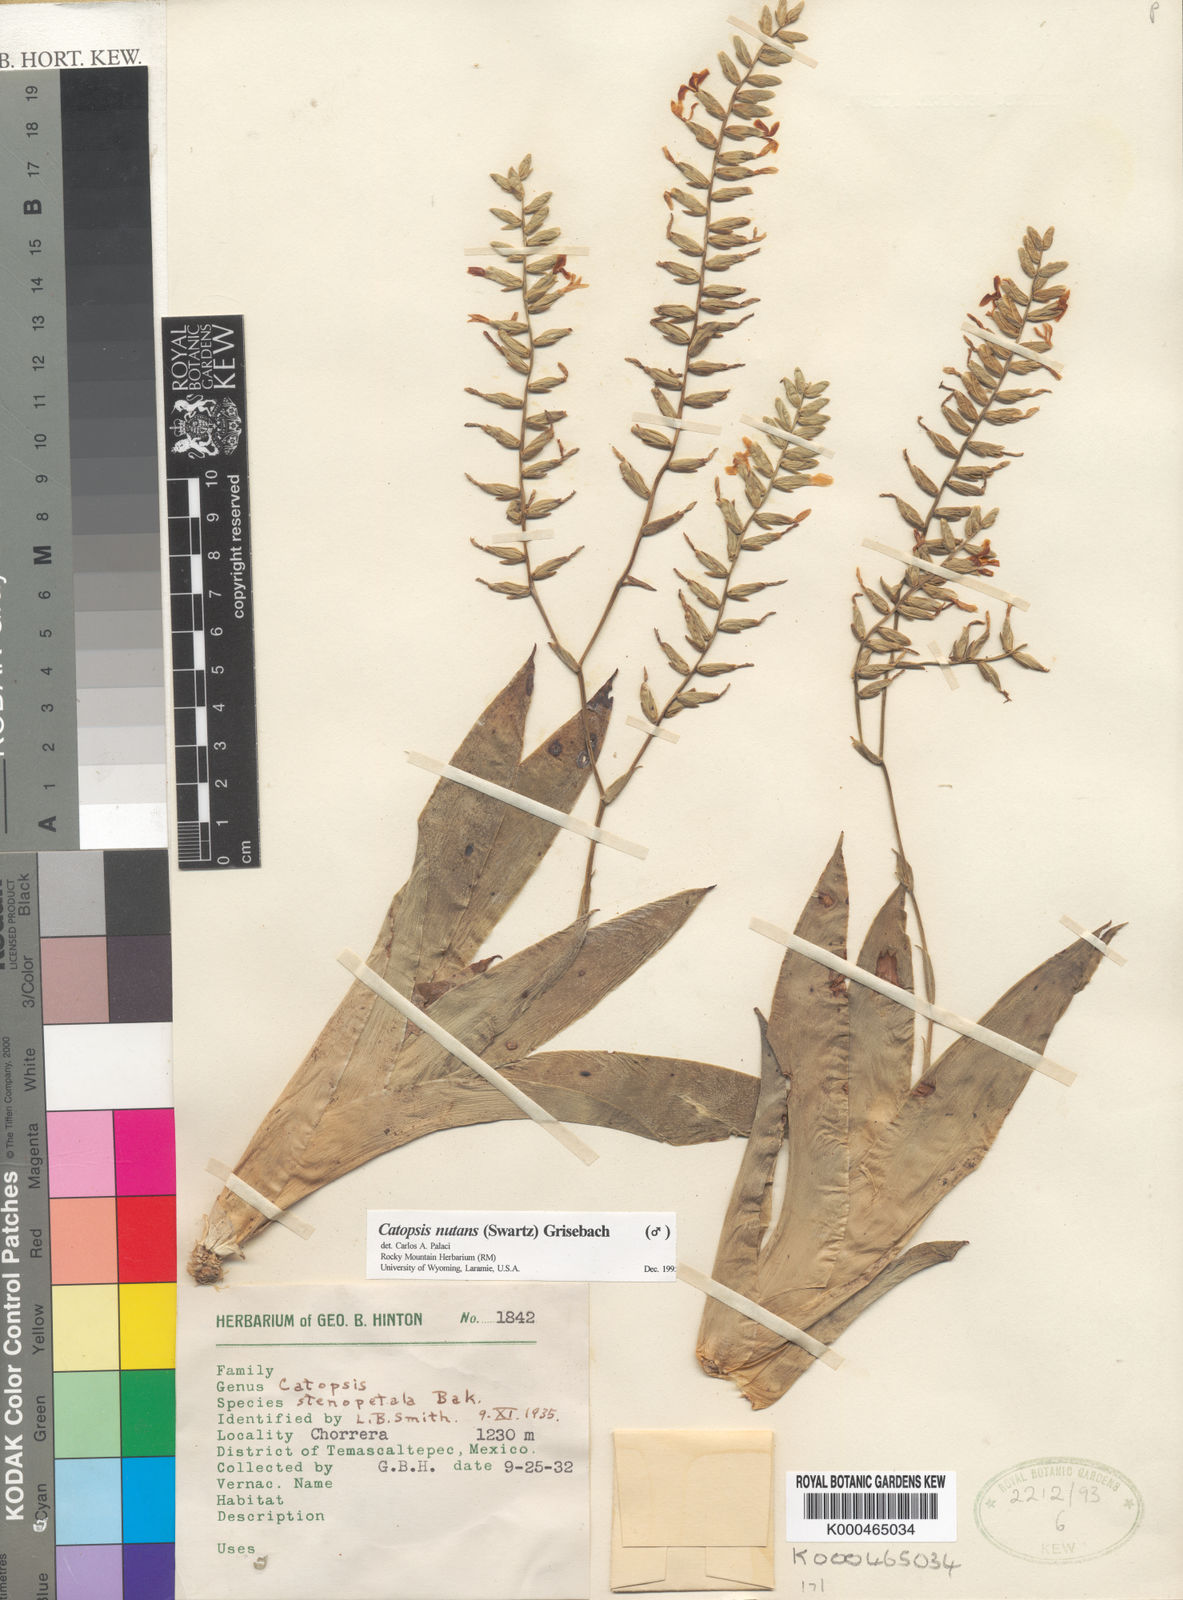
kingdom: Plantae
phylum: Tracheophyta
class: Liliopsida
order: Poales
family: Bromeliaceae
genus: Catopsis
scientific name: Catopsis nutans
